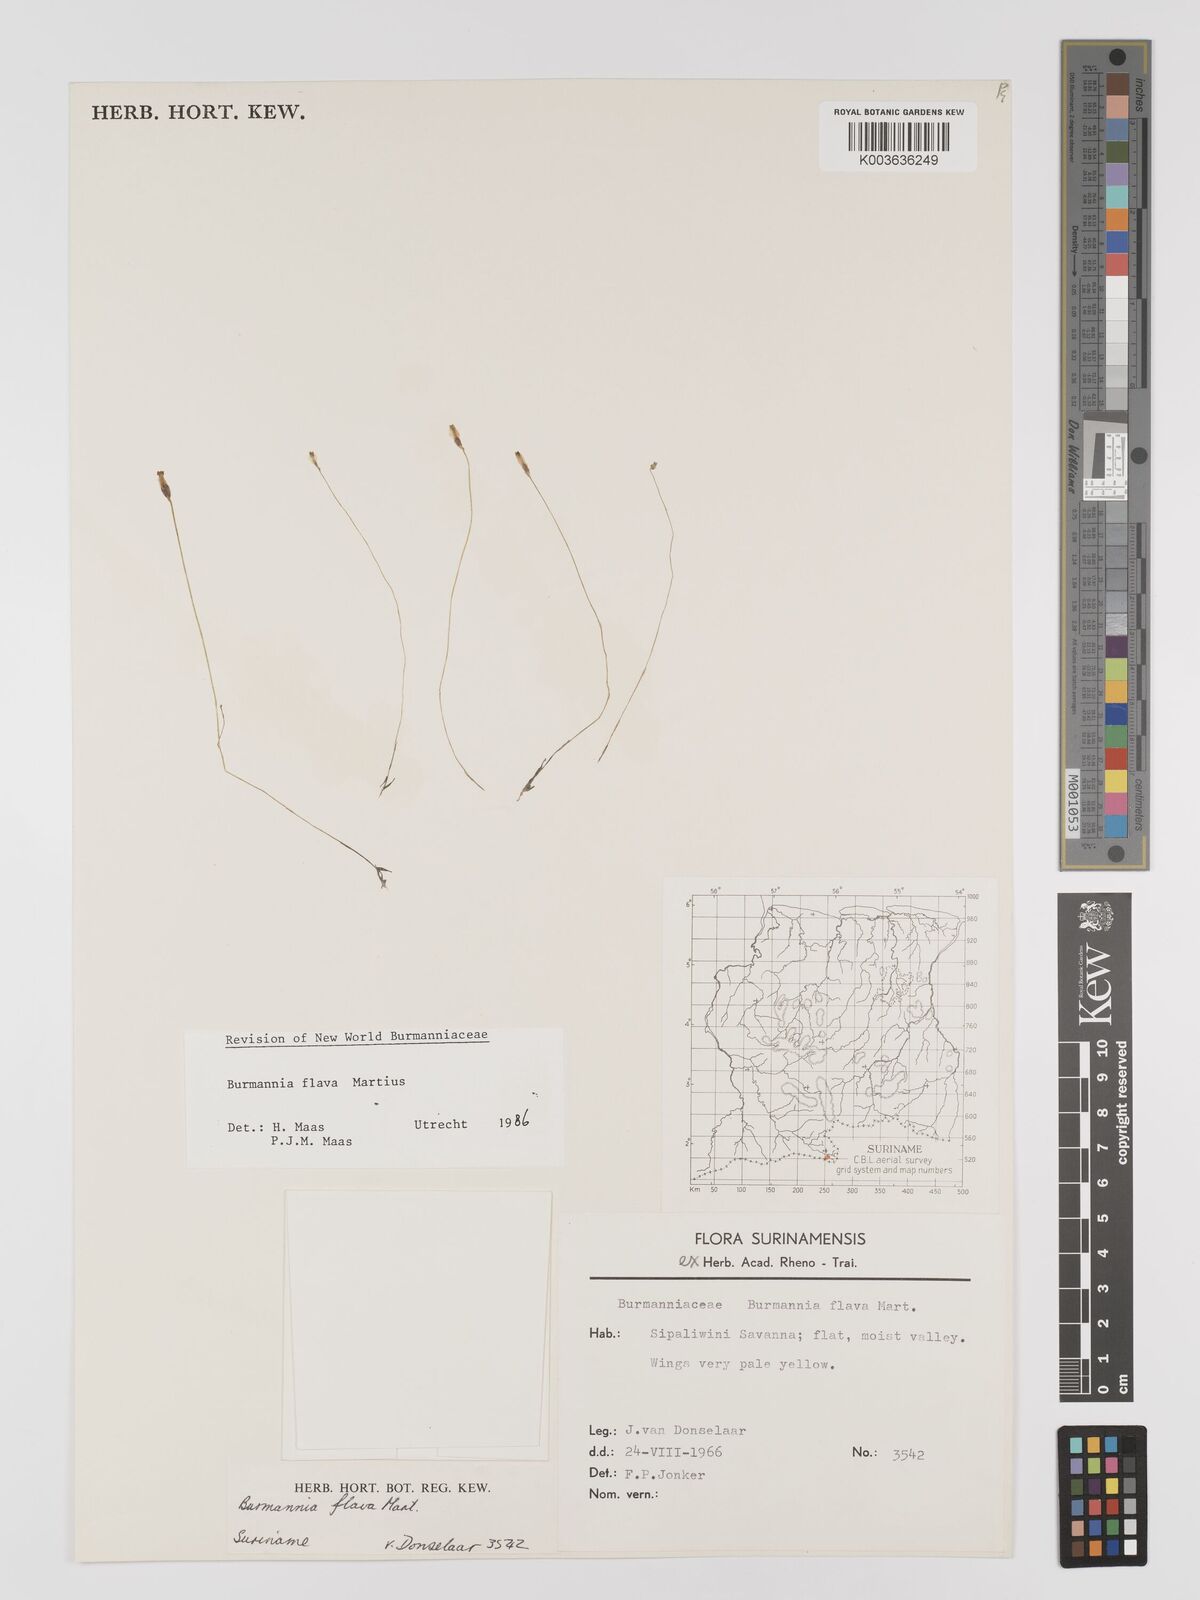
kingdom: Plantae
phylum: Tracheophyta
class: Liliopsida
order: Dioscoreales
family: Burmanniaceae
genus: Burmannia
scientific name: Burmannia flava
